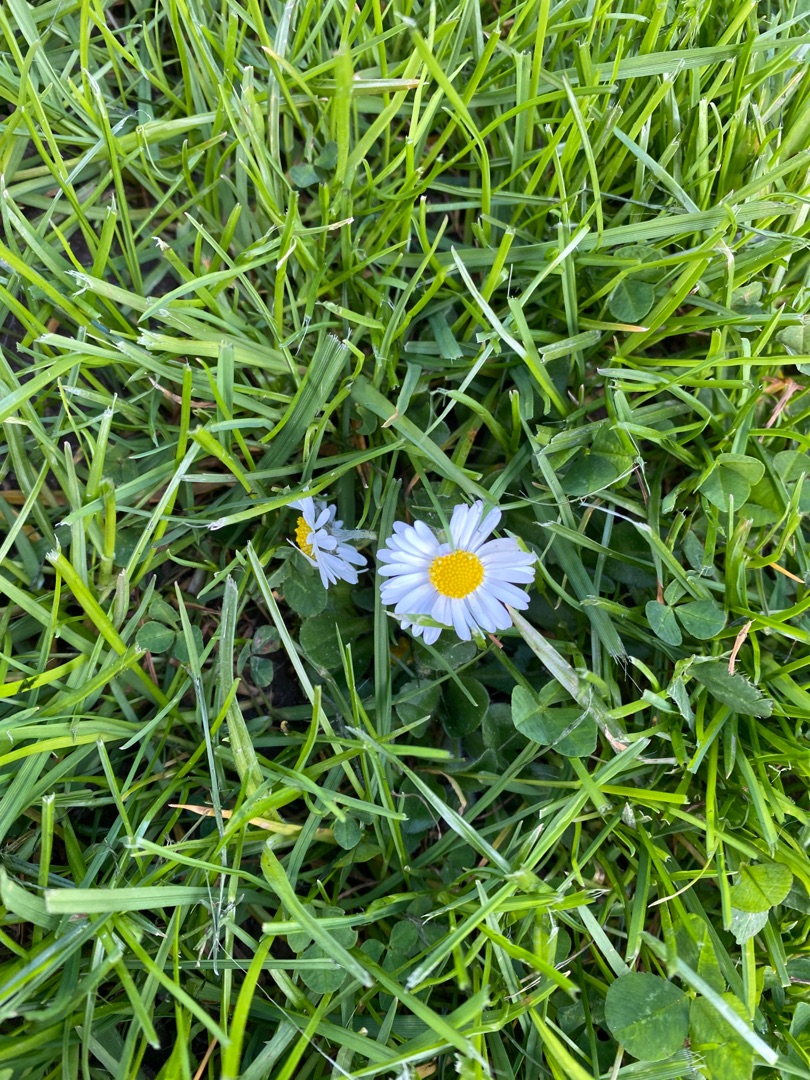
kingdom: Plantae
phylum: Tracheophyta
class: Magnoliopsida
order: Asterales
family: Asteraceae
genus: Bellis
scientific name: Bellis perennis
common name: Tusindfryd
